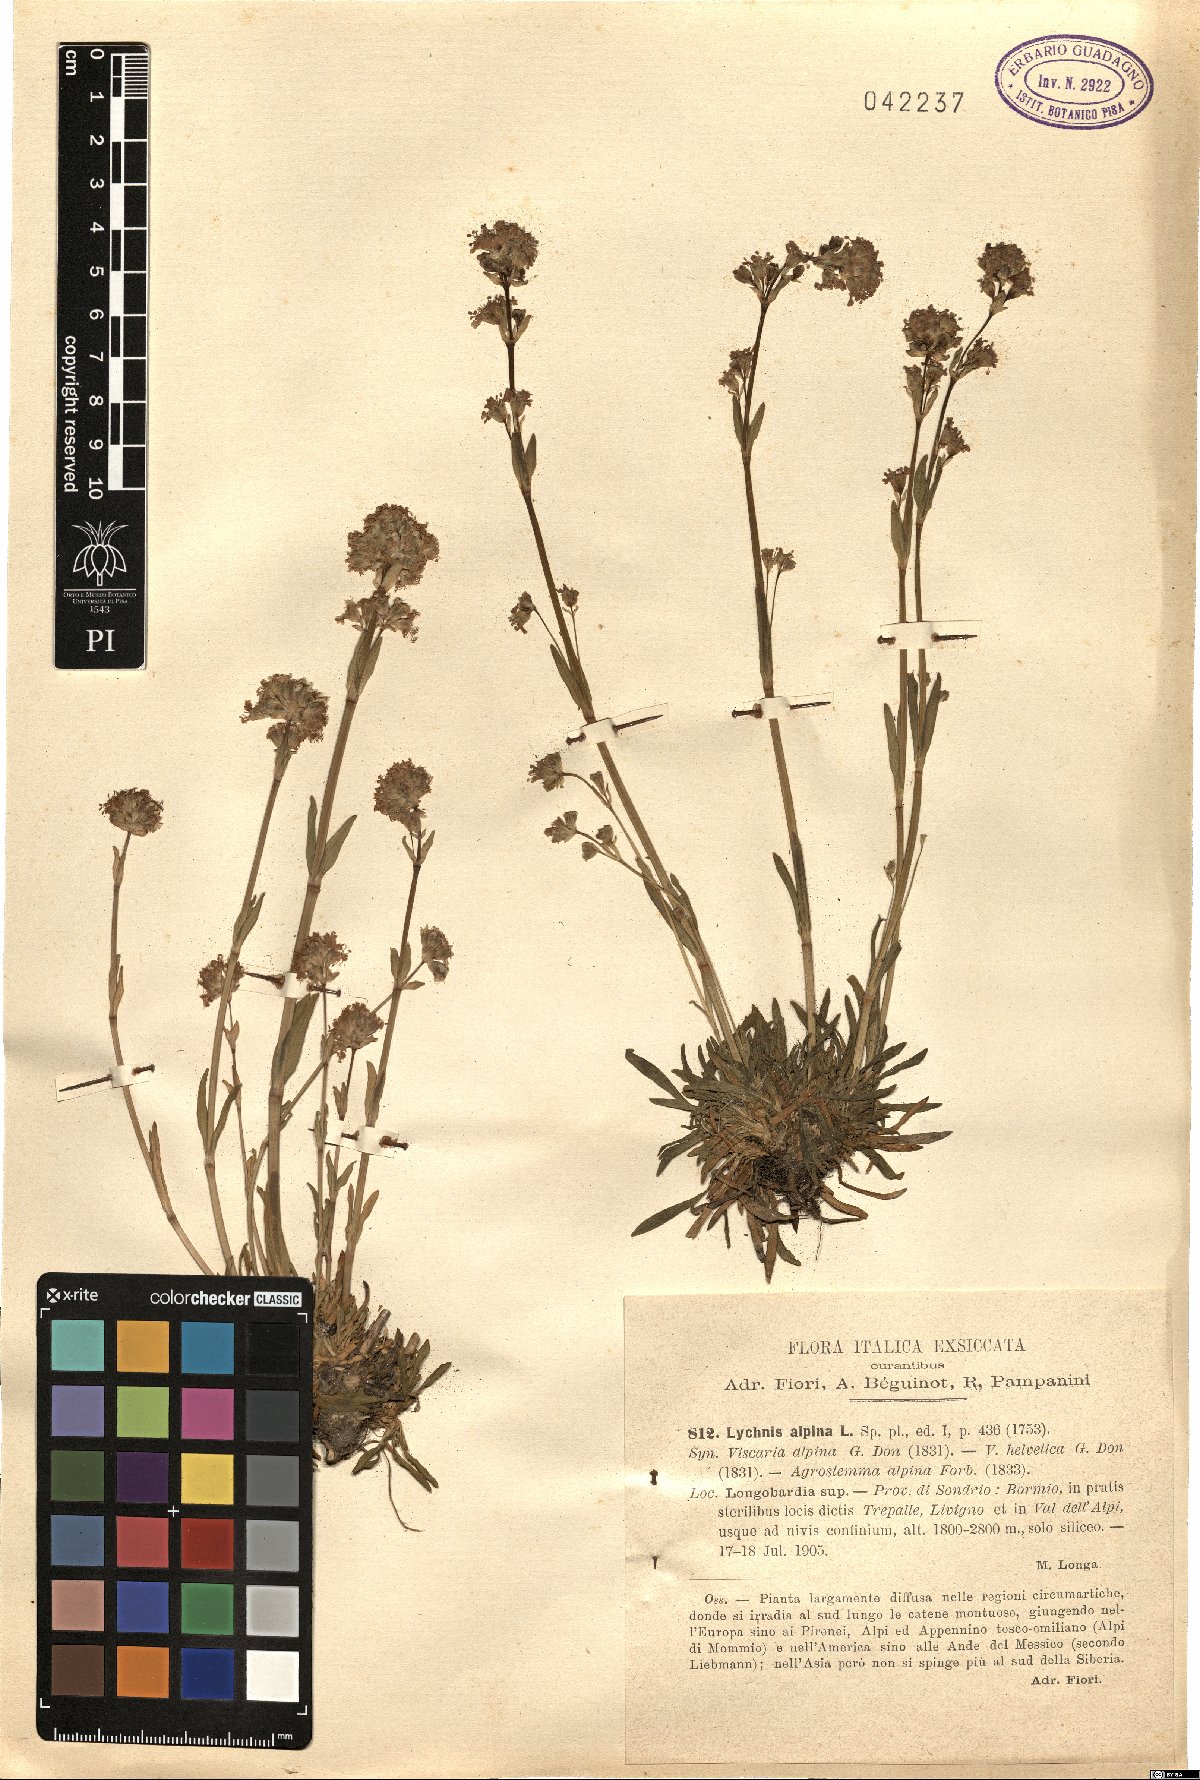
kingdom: Plantae
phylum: Tracheophyta
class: Magnoliopsida
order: Caryophyllales
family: Caryophyllaceae
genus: Viscaria
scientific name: Viscaria alpina
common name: Alpine campion
